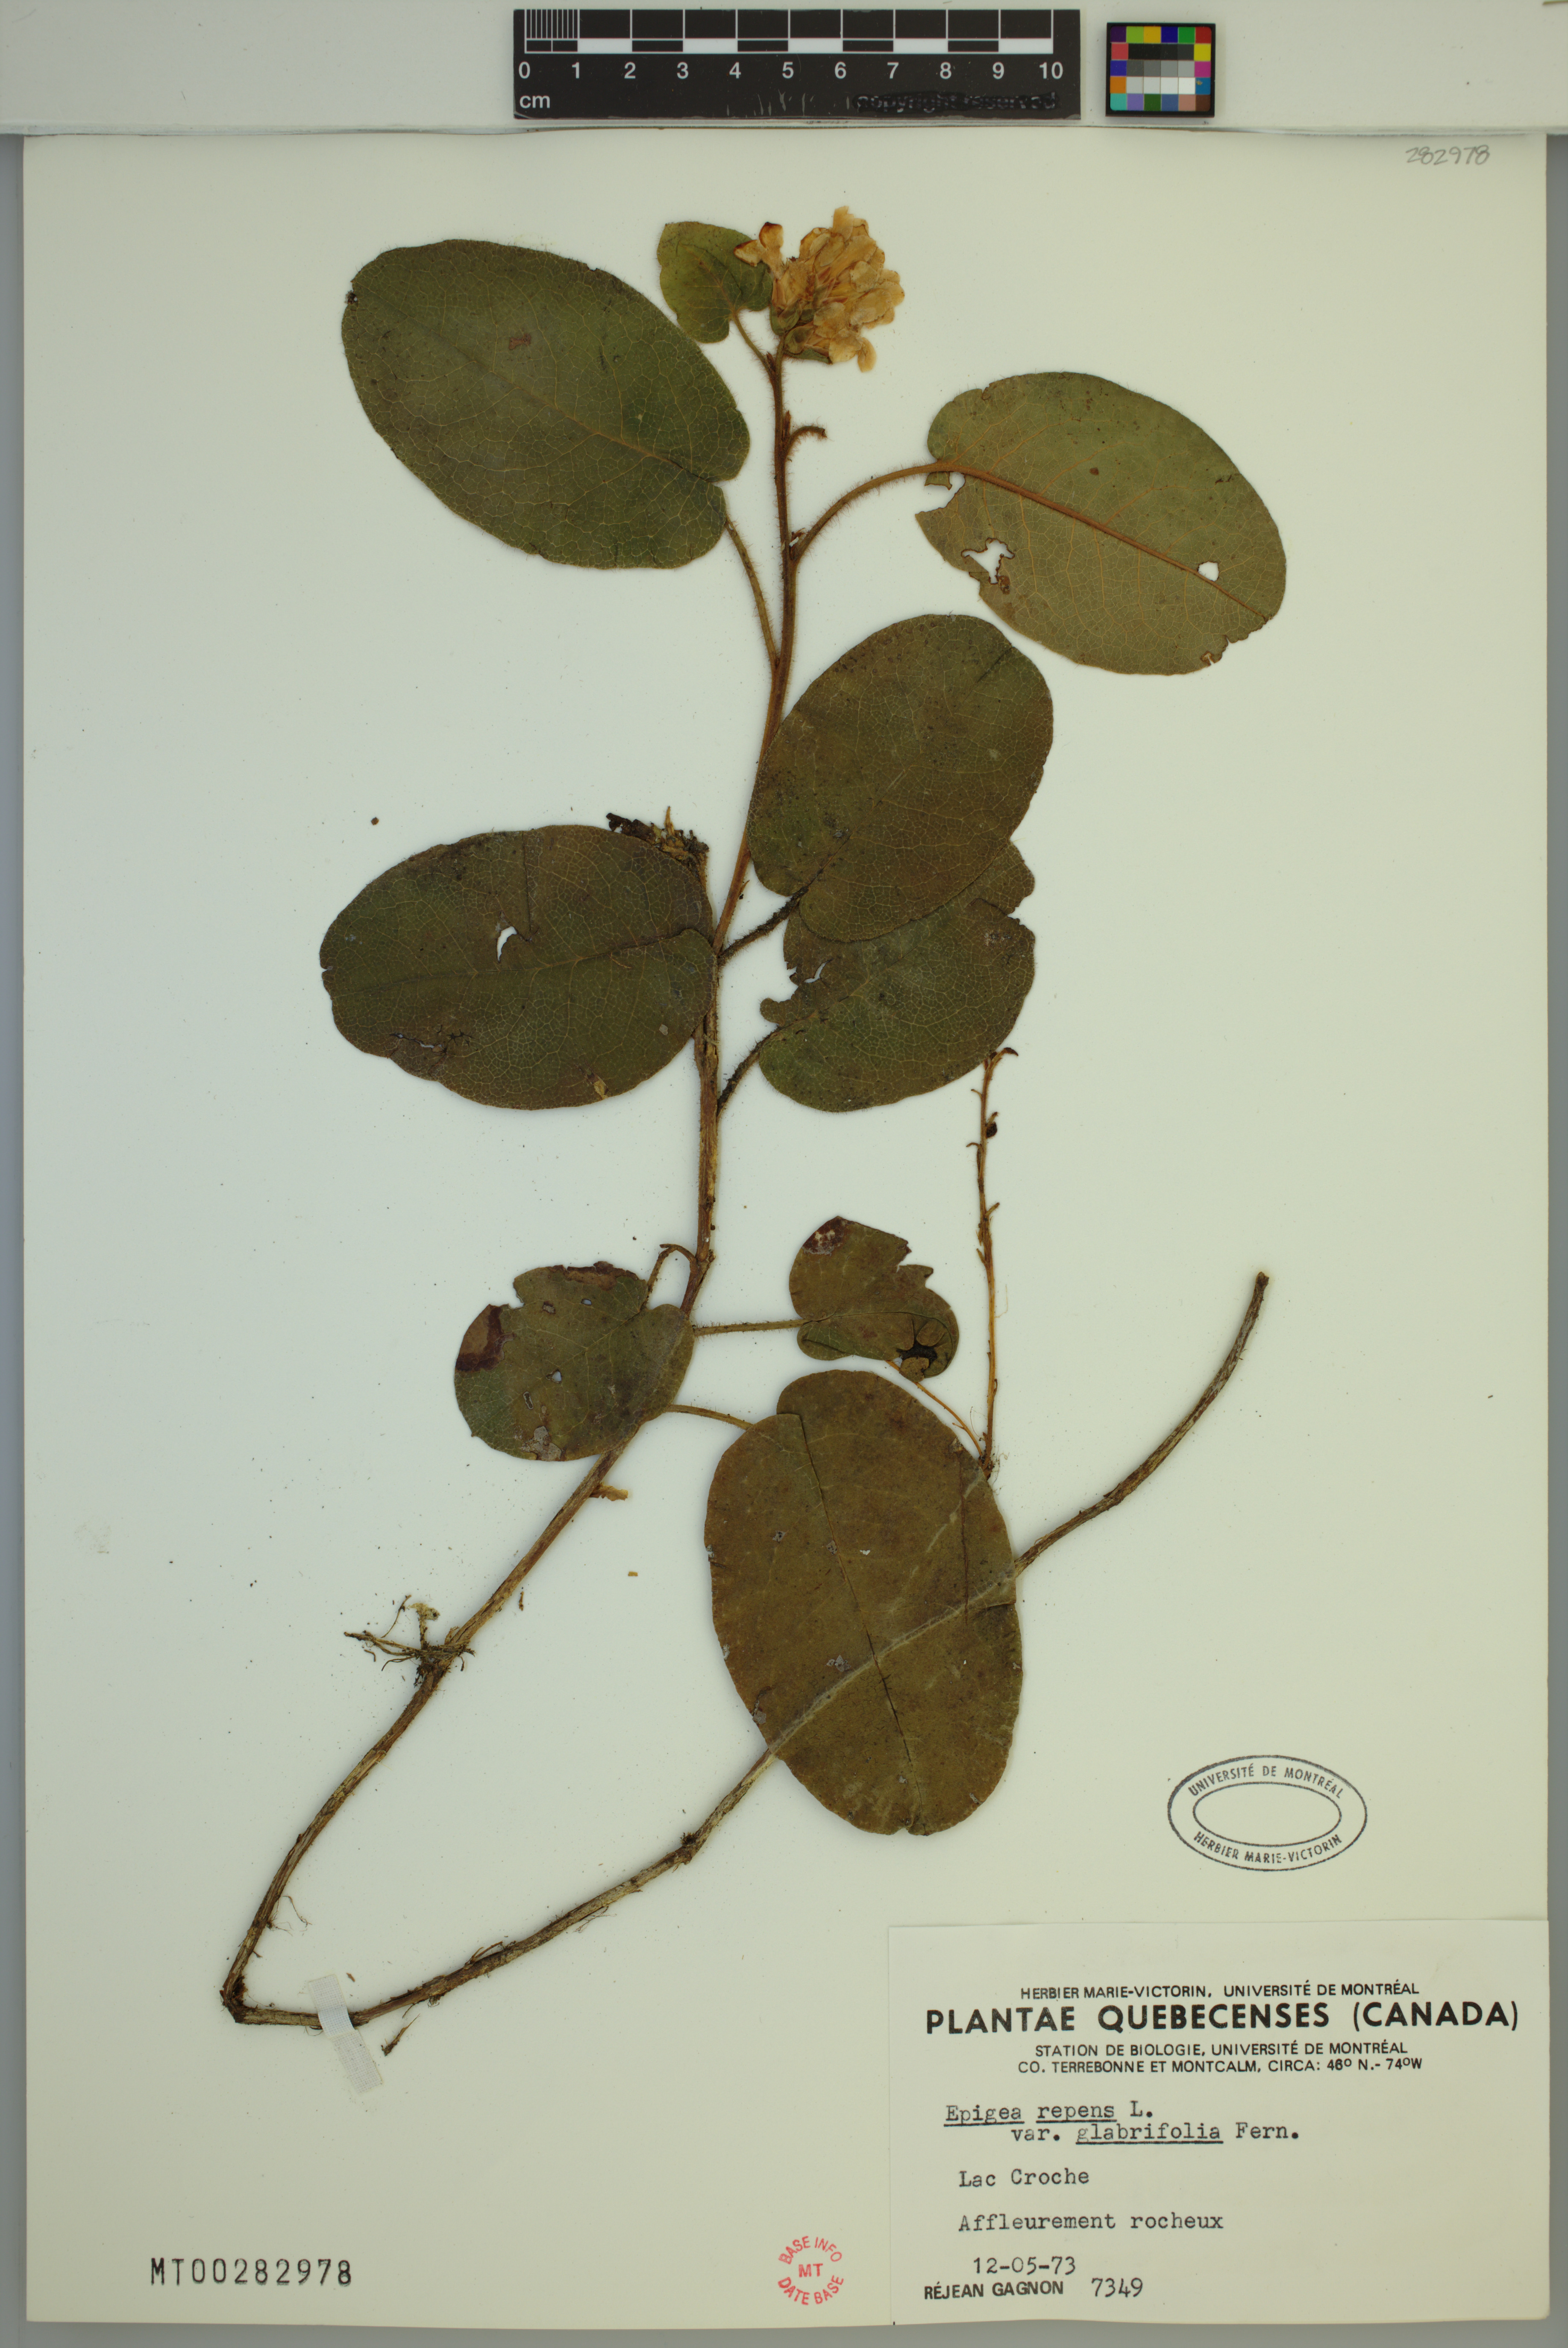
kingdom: Plantae
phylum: Tracheophyta
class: Magnoliopsida
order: Ericales
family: Ericaceae
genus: Epigaea
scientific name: Epigaea repens
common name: Gravelroot
